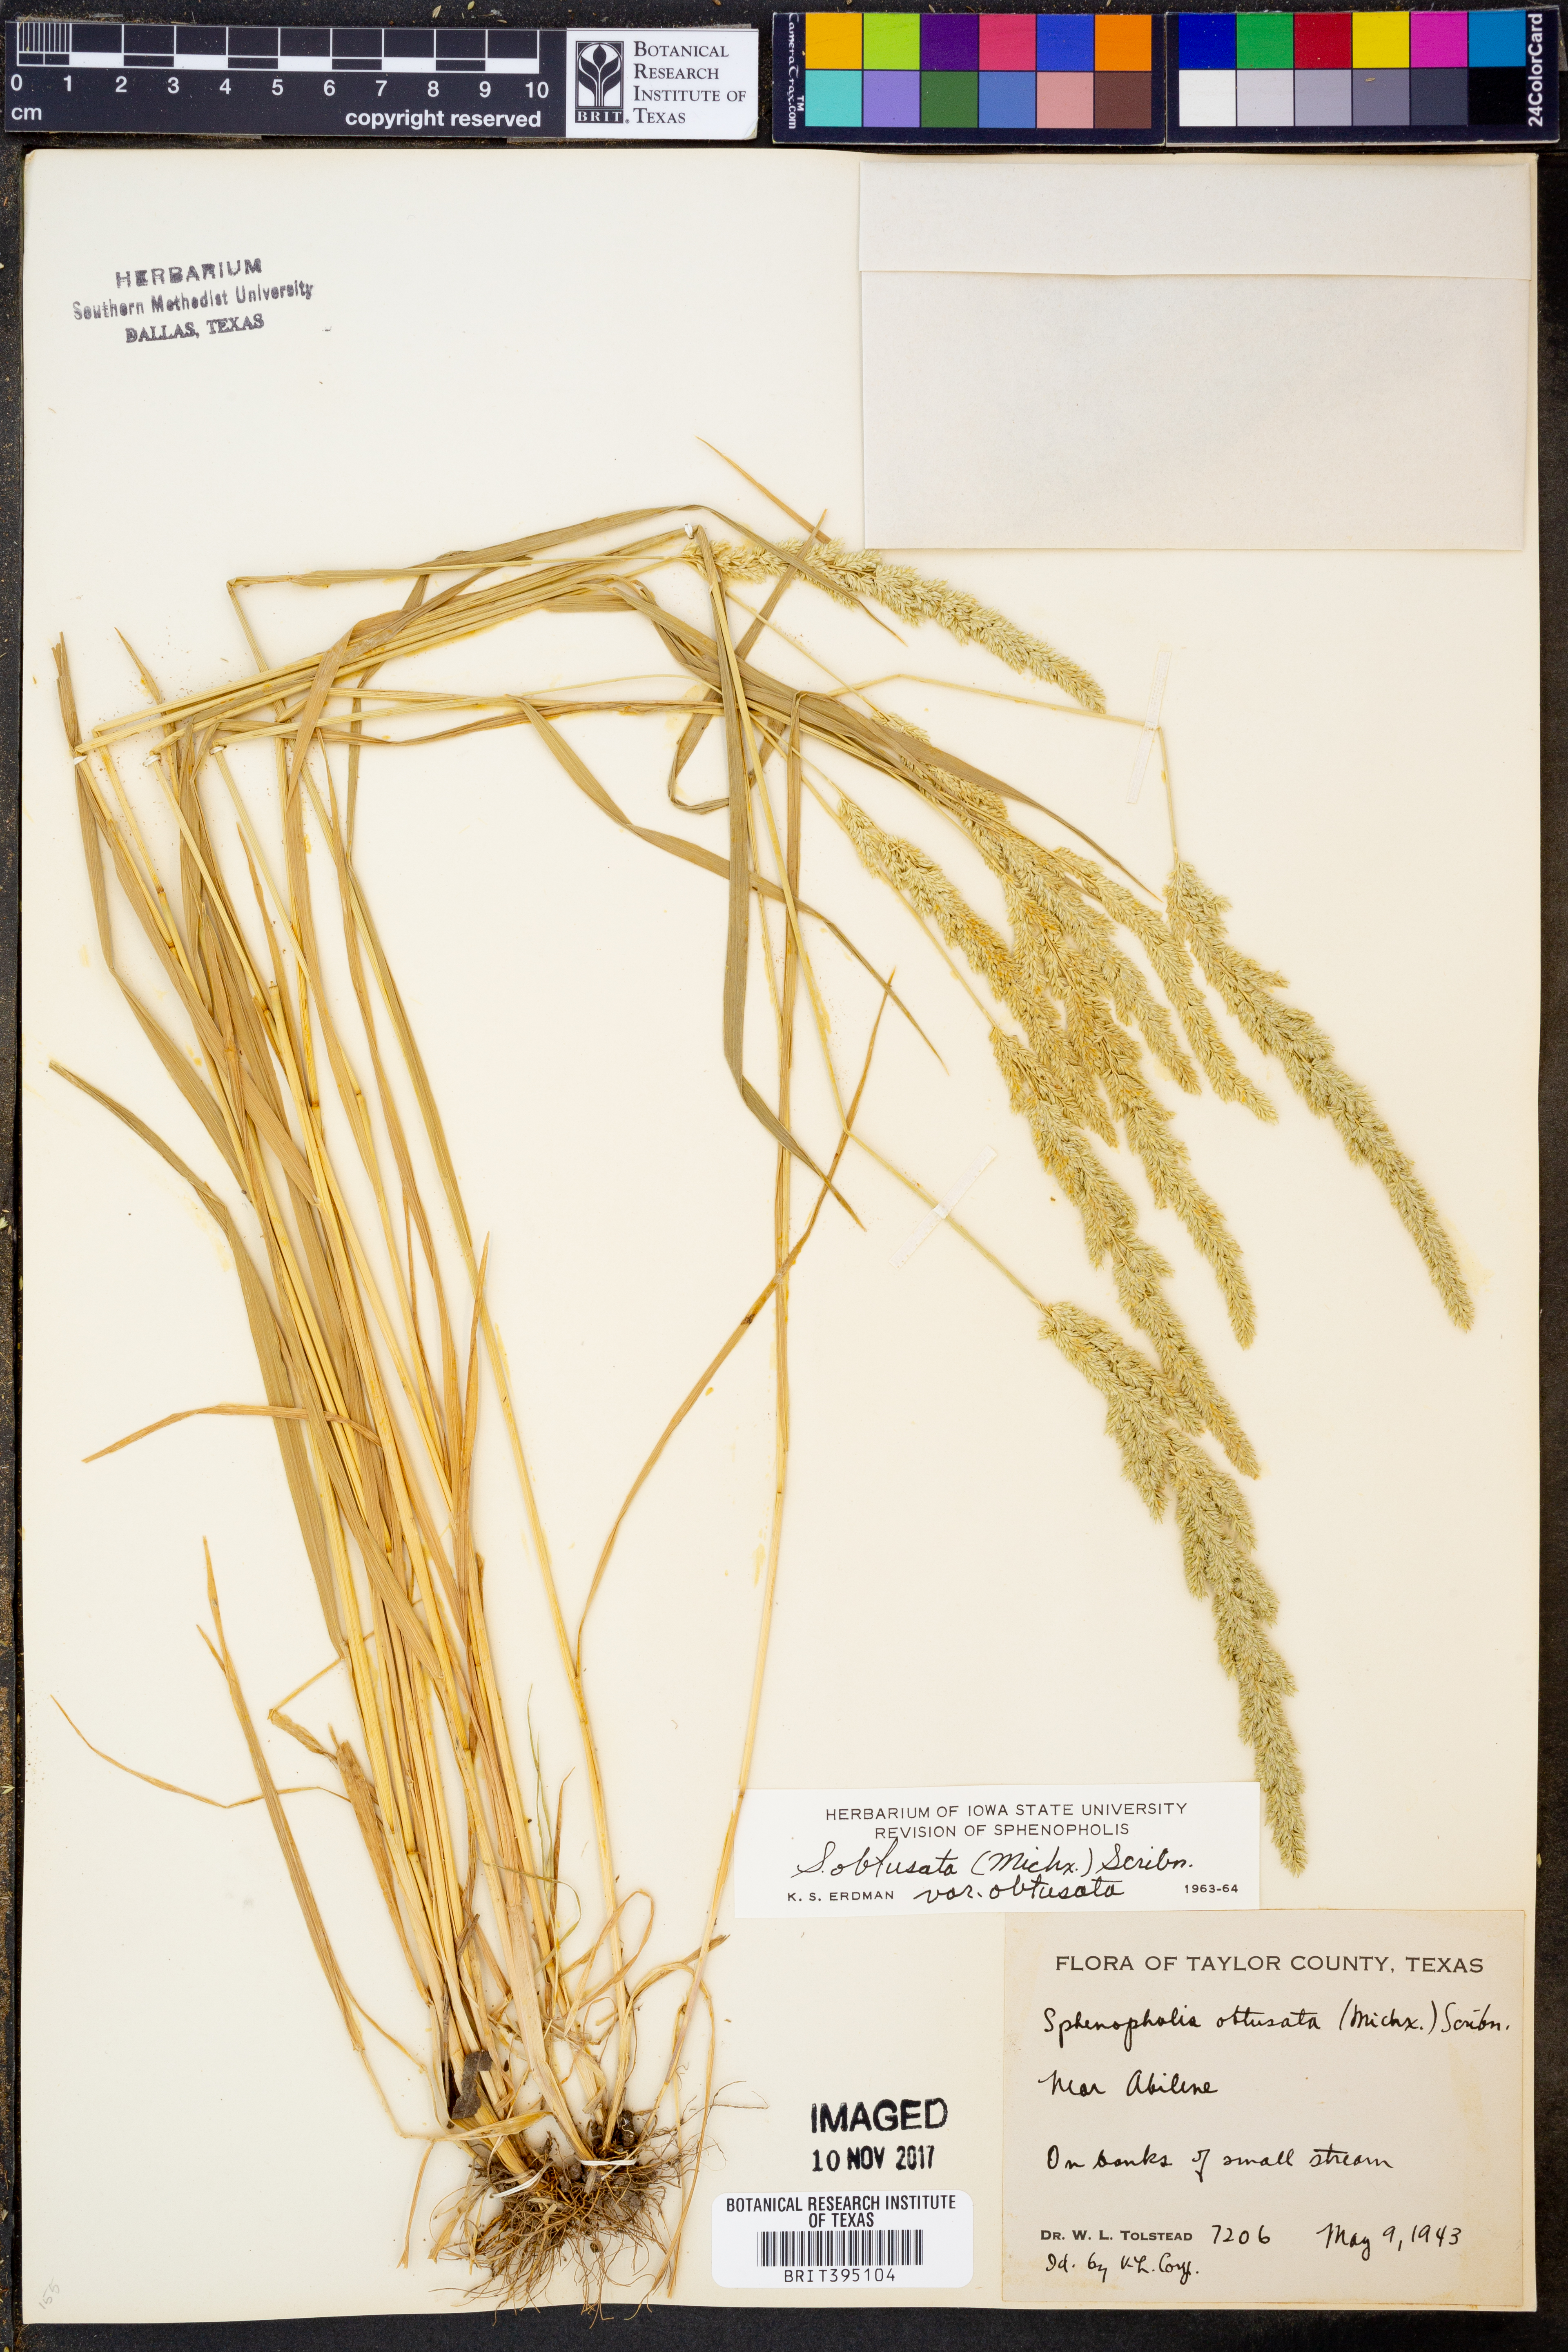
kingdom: Plantae
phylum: Tracheophyta
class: Liliopsida
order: Poales
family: Poaceae
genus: Sphenopholis
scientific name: Sphenopholis obtusata
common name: Prairie grass
